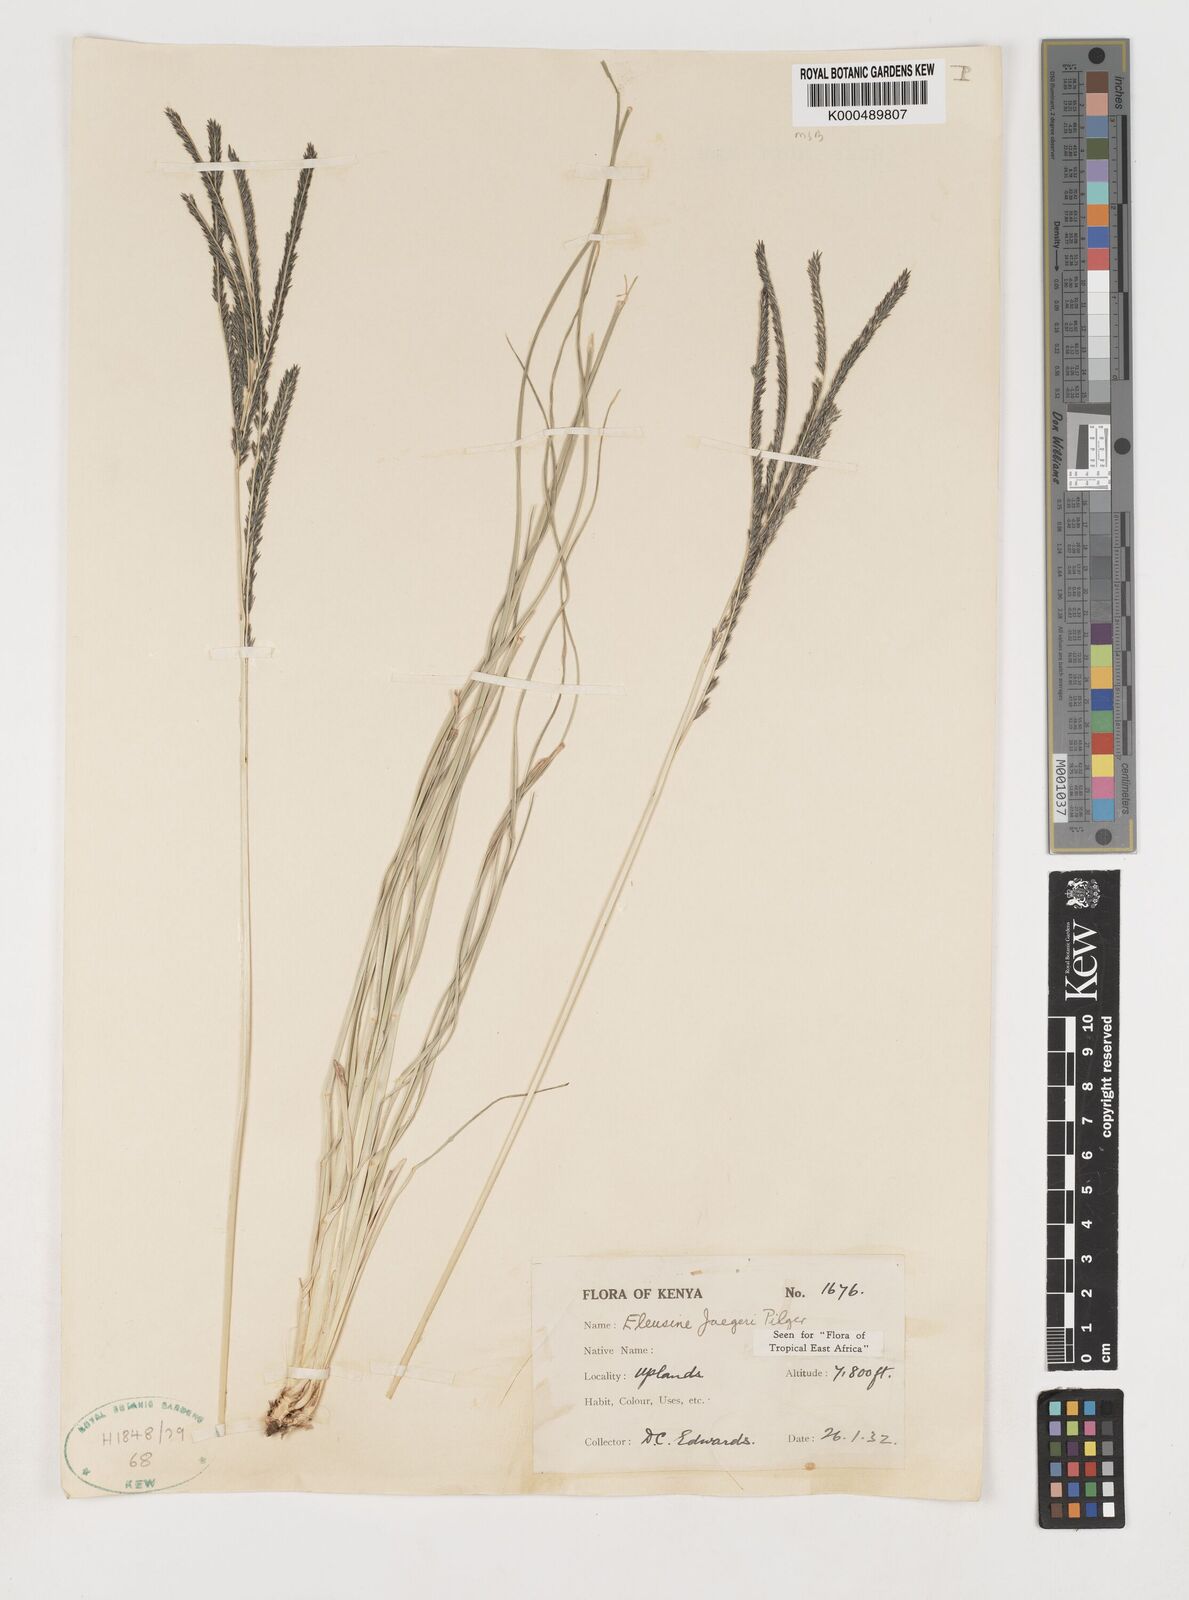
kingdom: Plantae
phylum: Tracheophyta
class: Liliopsida
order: Poales
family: Poaceae
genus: Eleusine
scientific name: Eleusine jaegeri
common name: Manyatta grass
